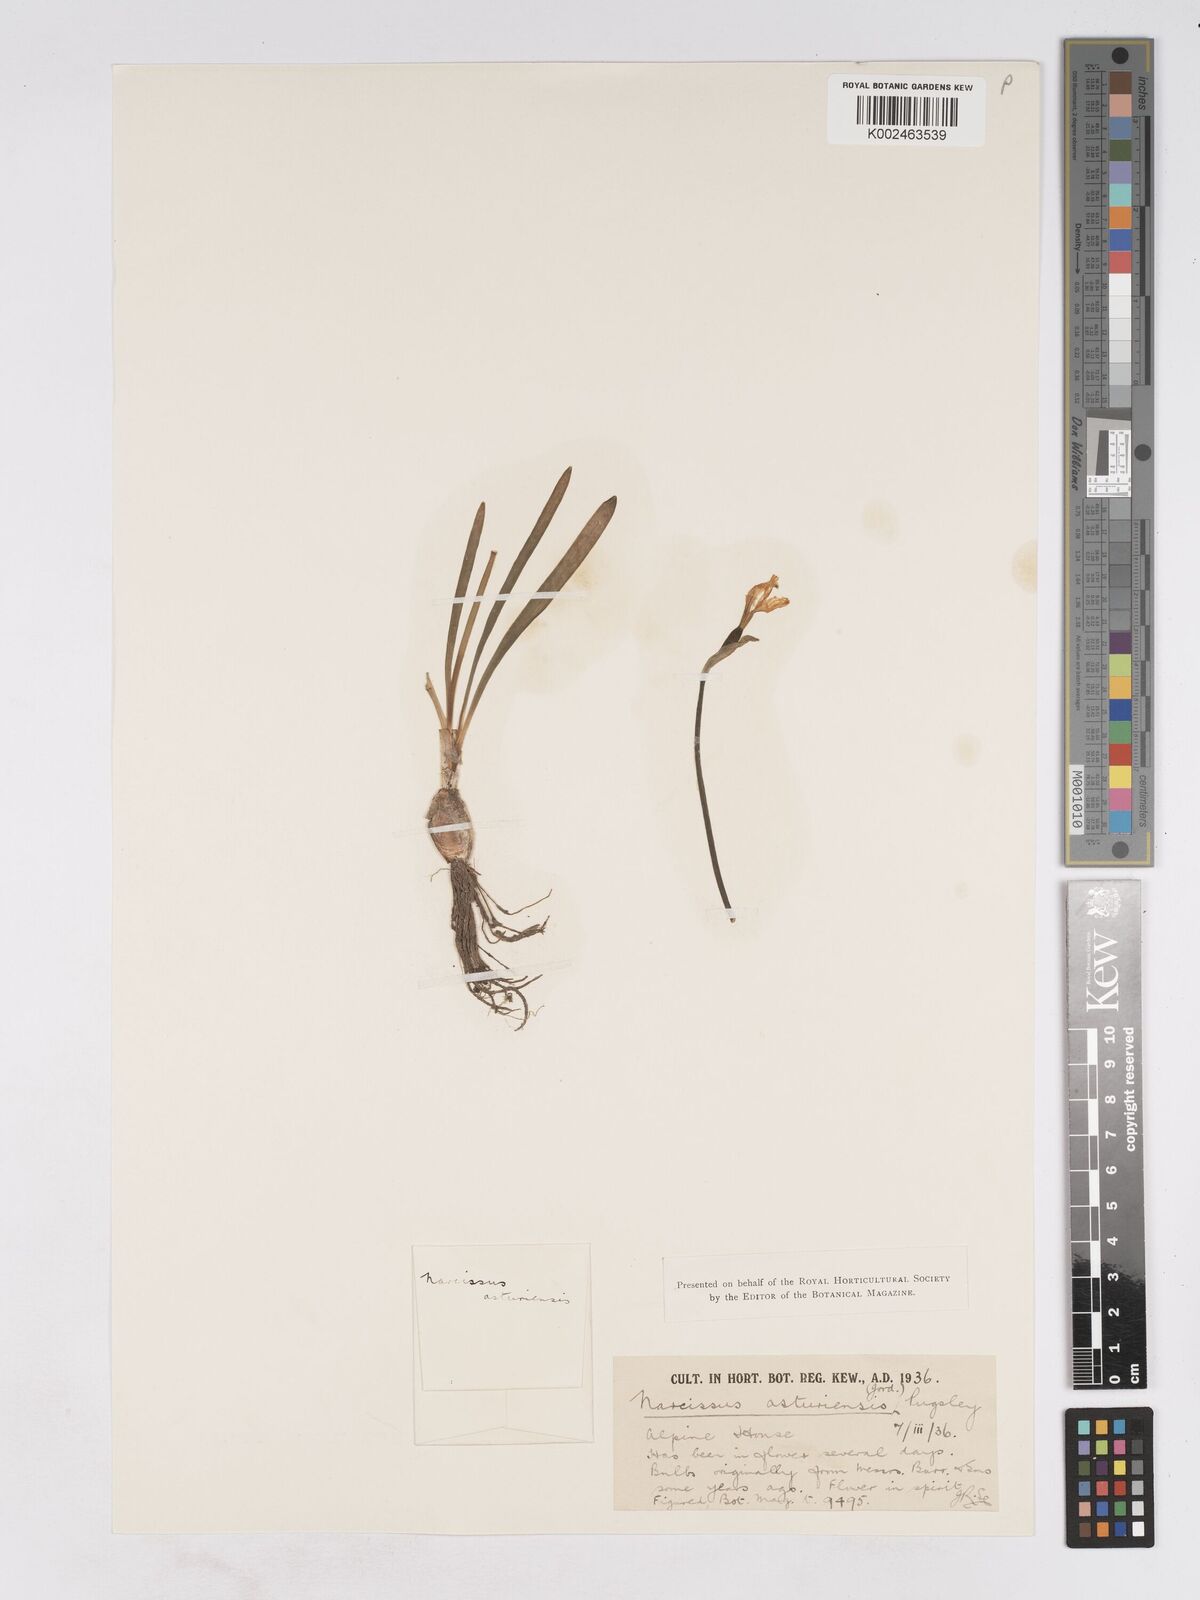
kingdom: Plantae
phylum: Tracheophyta
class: Liliopsida
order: Asparagales
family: Amaryllidaceae
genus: Narcissus
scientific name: Narcissus cuneiflorus
